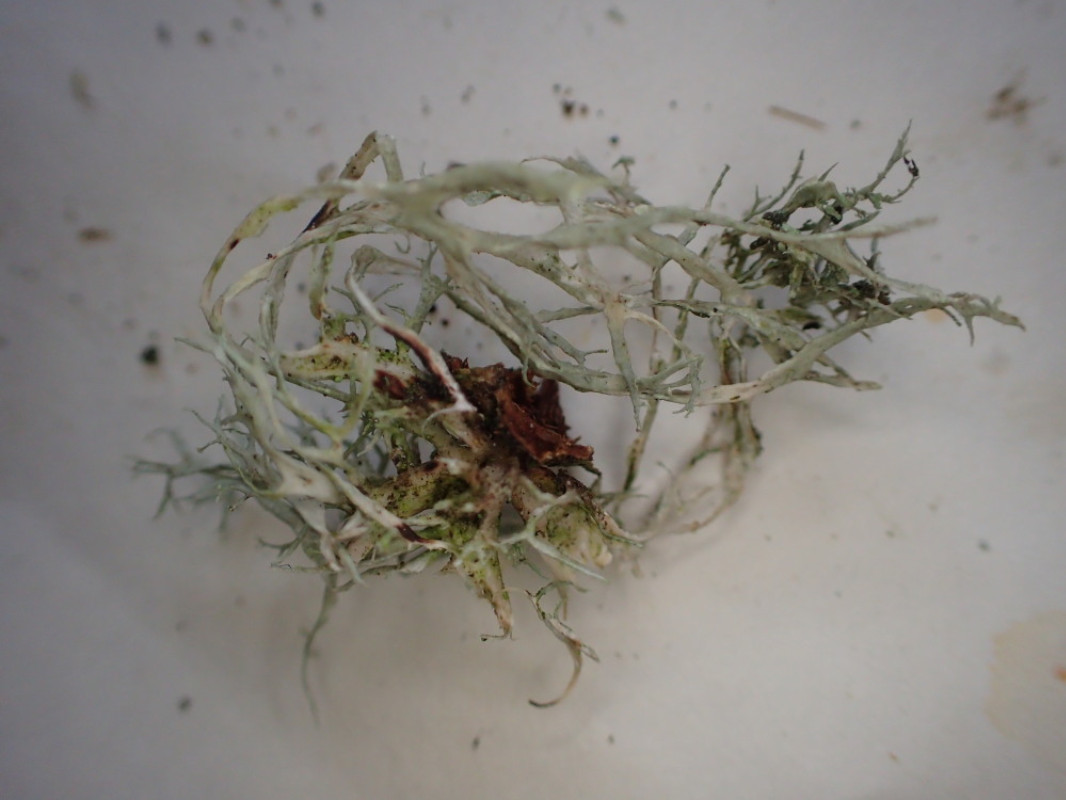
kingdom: Fungi
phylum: Ascomycota
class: Lecanoromycetes
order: Lecanorales
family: Ramalinaceae
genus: Ramalina
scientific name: Ramalina farinacea
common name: melet grenlav
